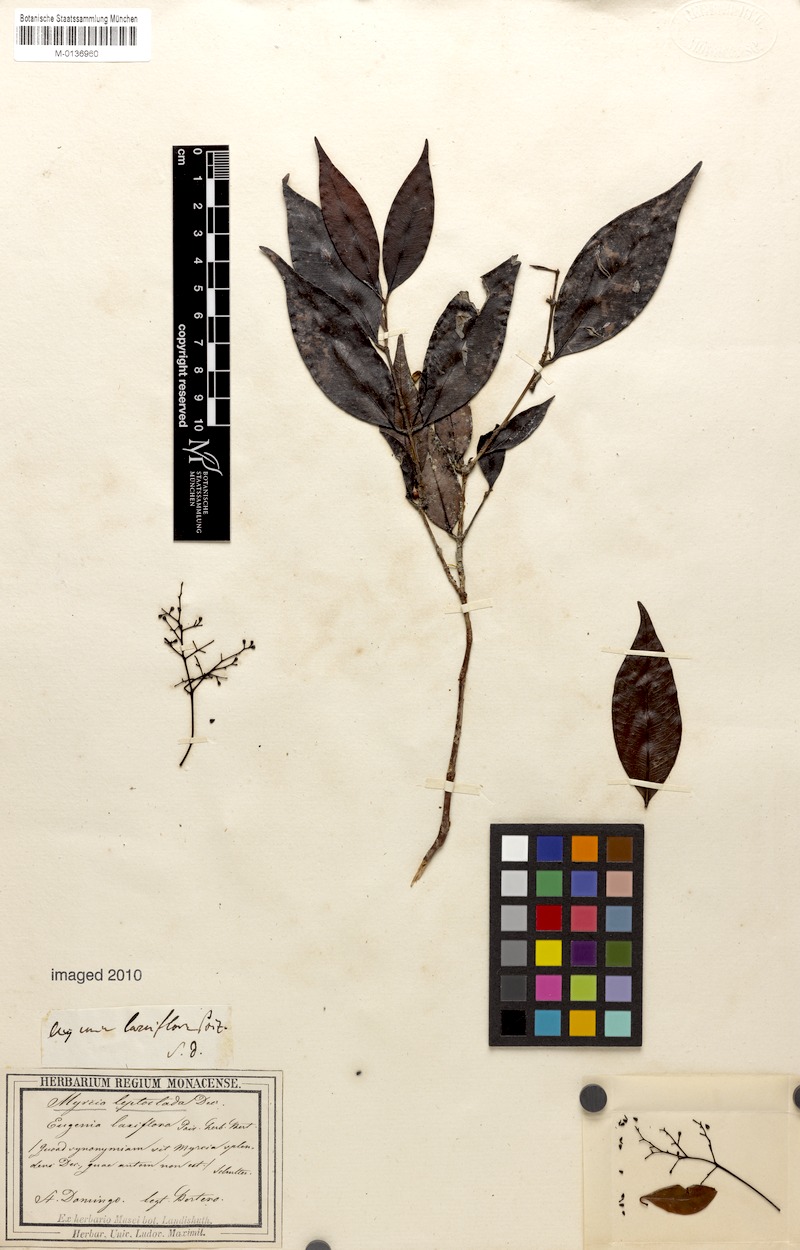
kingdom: Plantae
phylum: Tracheophyta
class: Magnoliopsida
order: Myrtales
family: Myrtaceae
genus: Myrcia
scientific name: Myrcia amazonica
